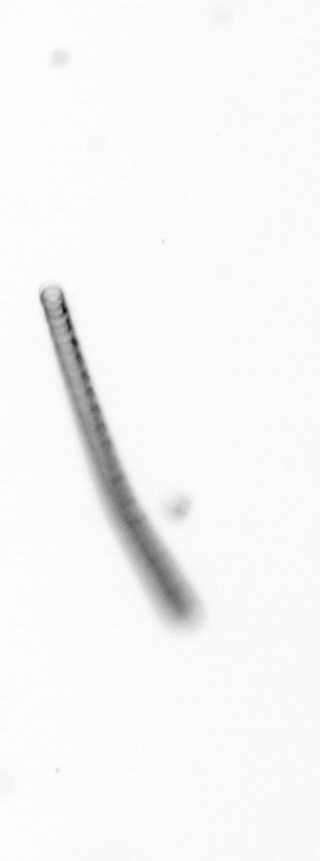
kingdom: Chromista
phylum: Ochrophyta
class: Bacillariophyceae
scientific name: Bacillariophyceae
